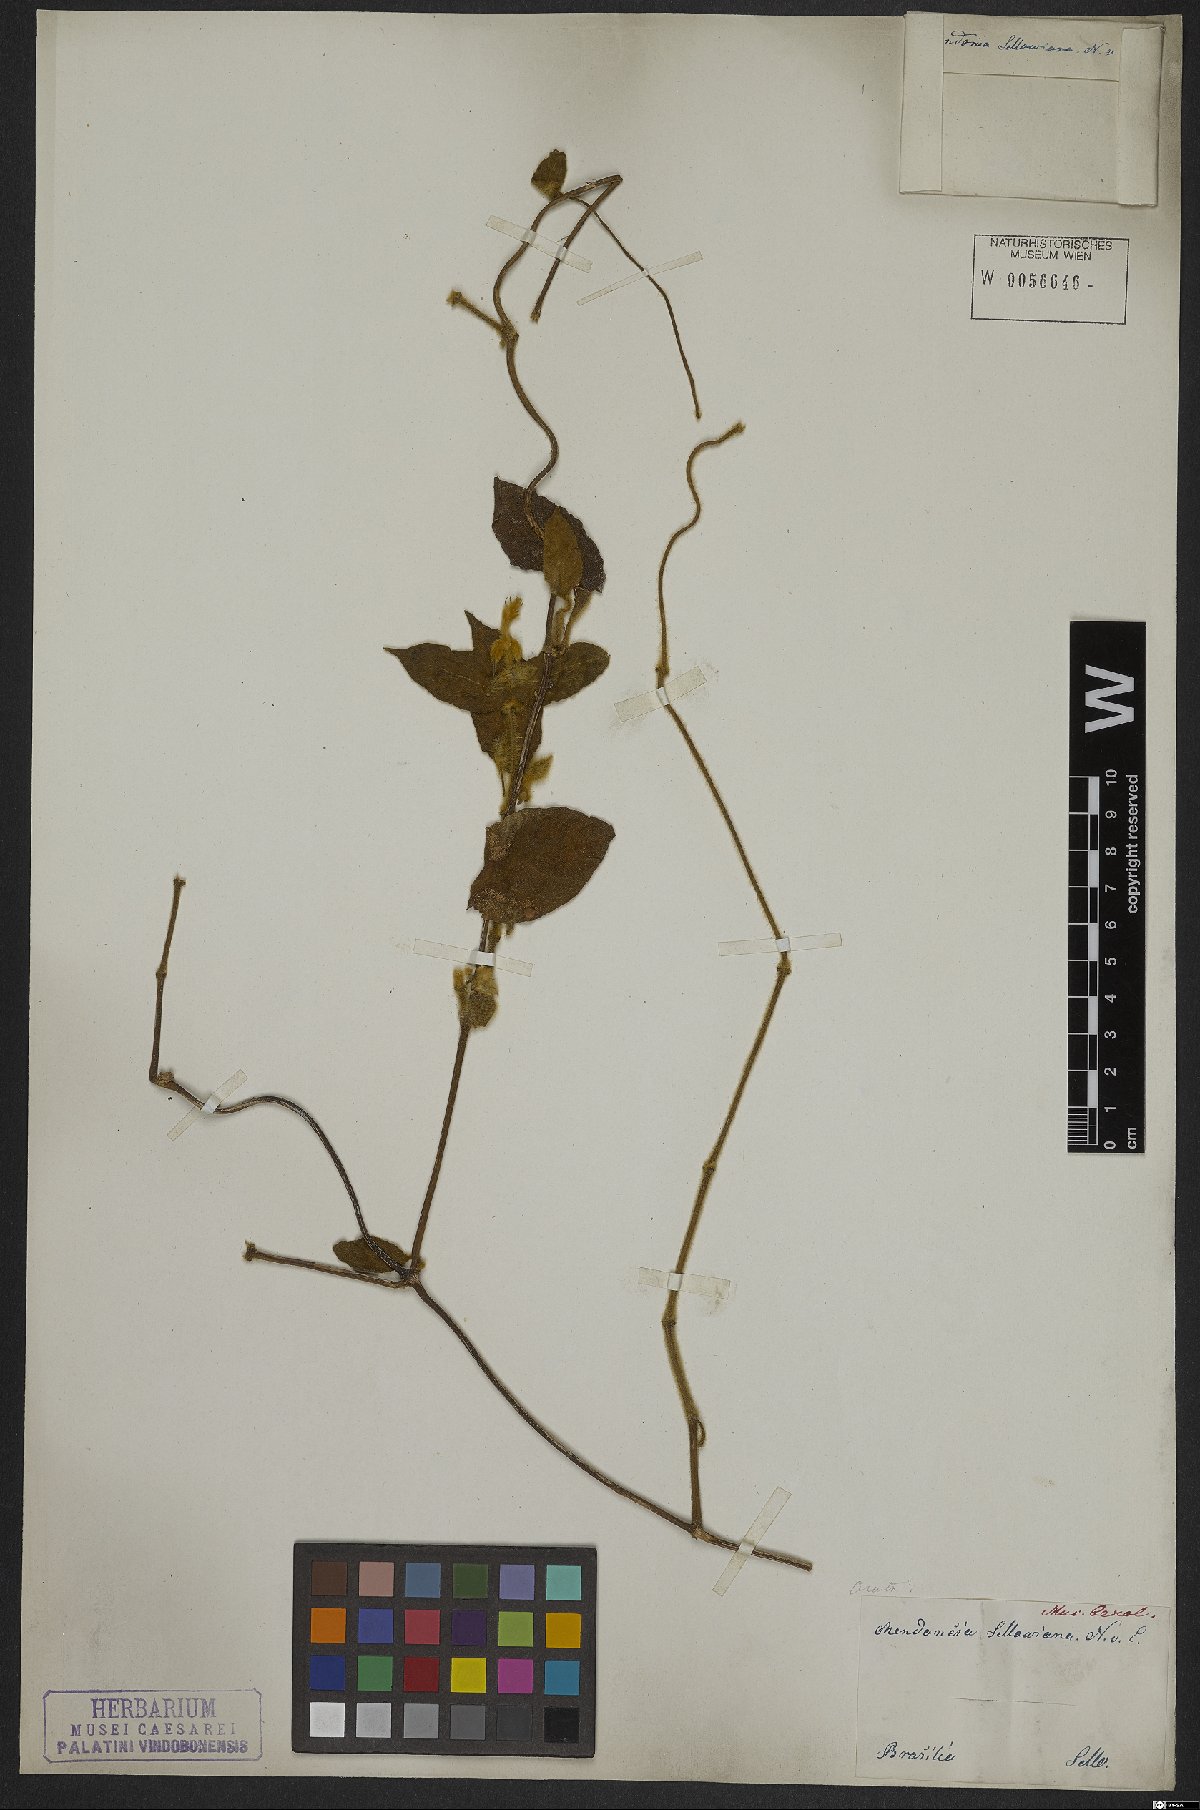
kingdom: Plantae
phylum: Tracheophyta
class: Magnoliopsida
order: Lamiales
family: Acanthaceae
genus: Mendoncia
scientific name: Mendoncia puberula
